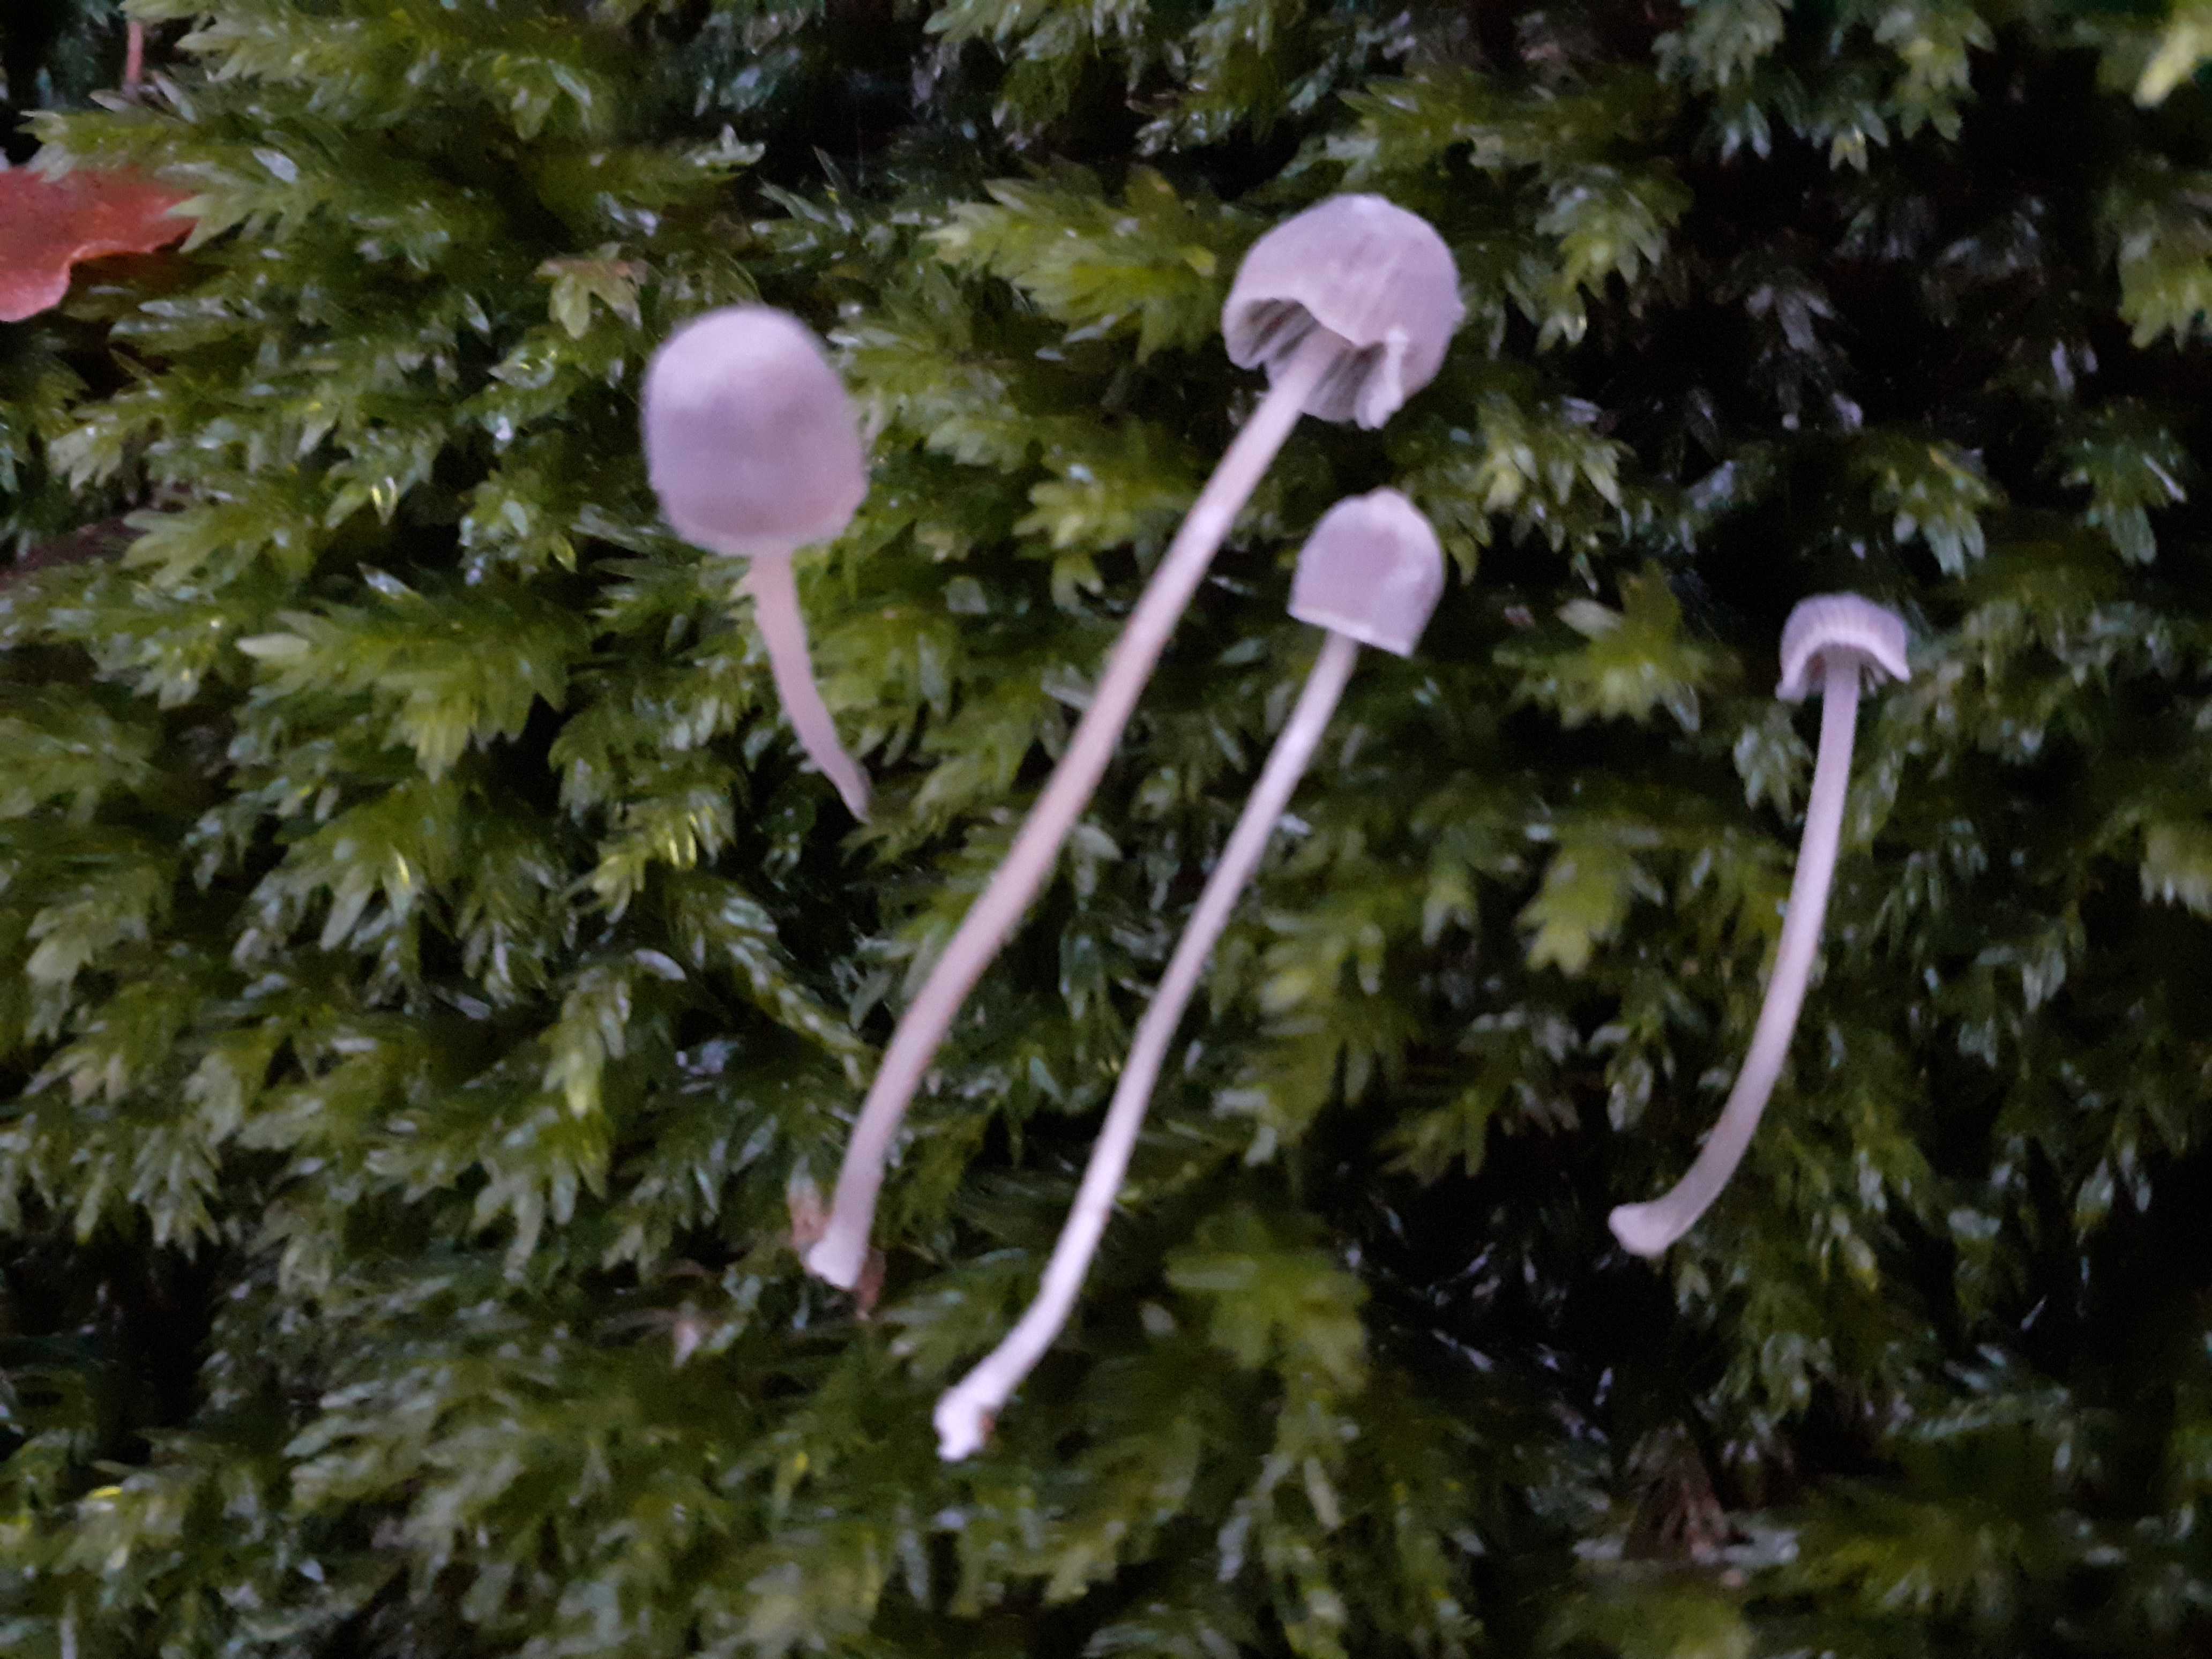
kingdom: Fungi
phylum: Basidiomycota
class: Agaricomycetes
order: Agaricales
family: Mycenaceae
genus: Mycena
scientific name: Mycena cinerella
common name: mel-huesvamp
